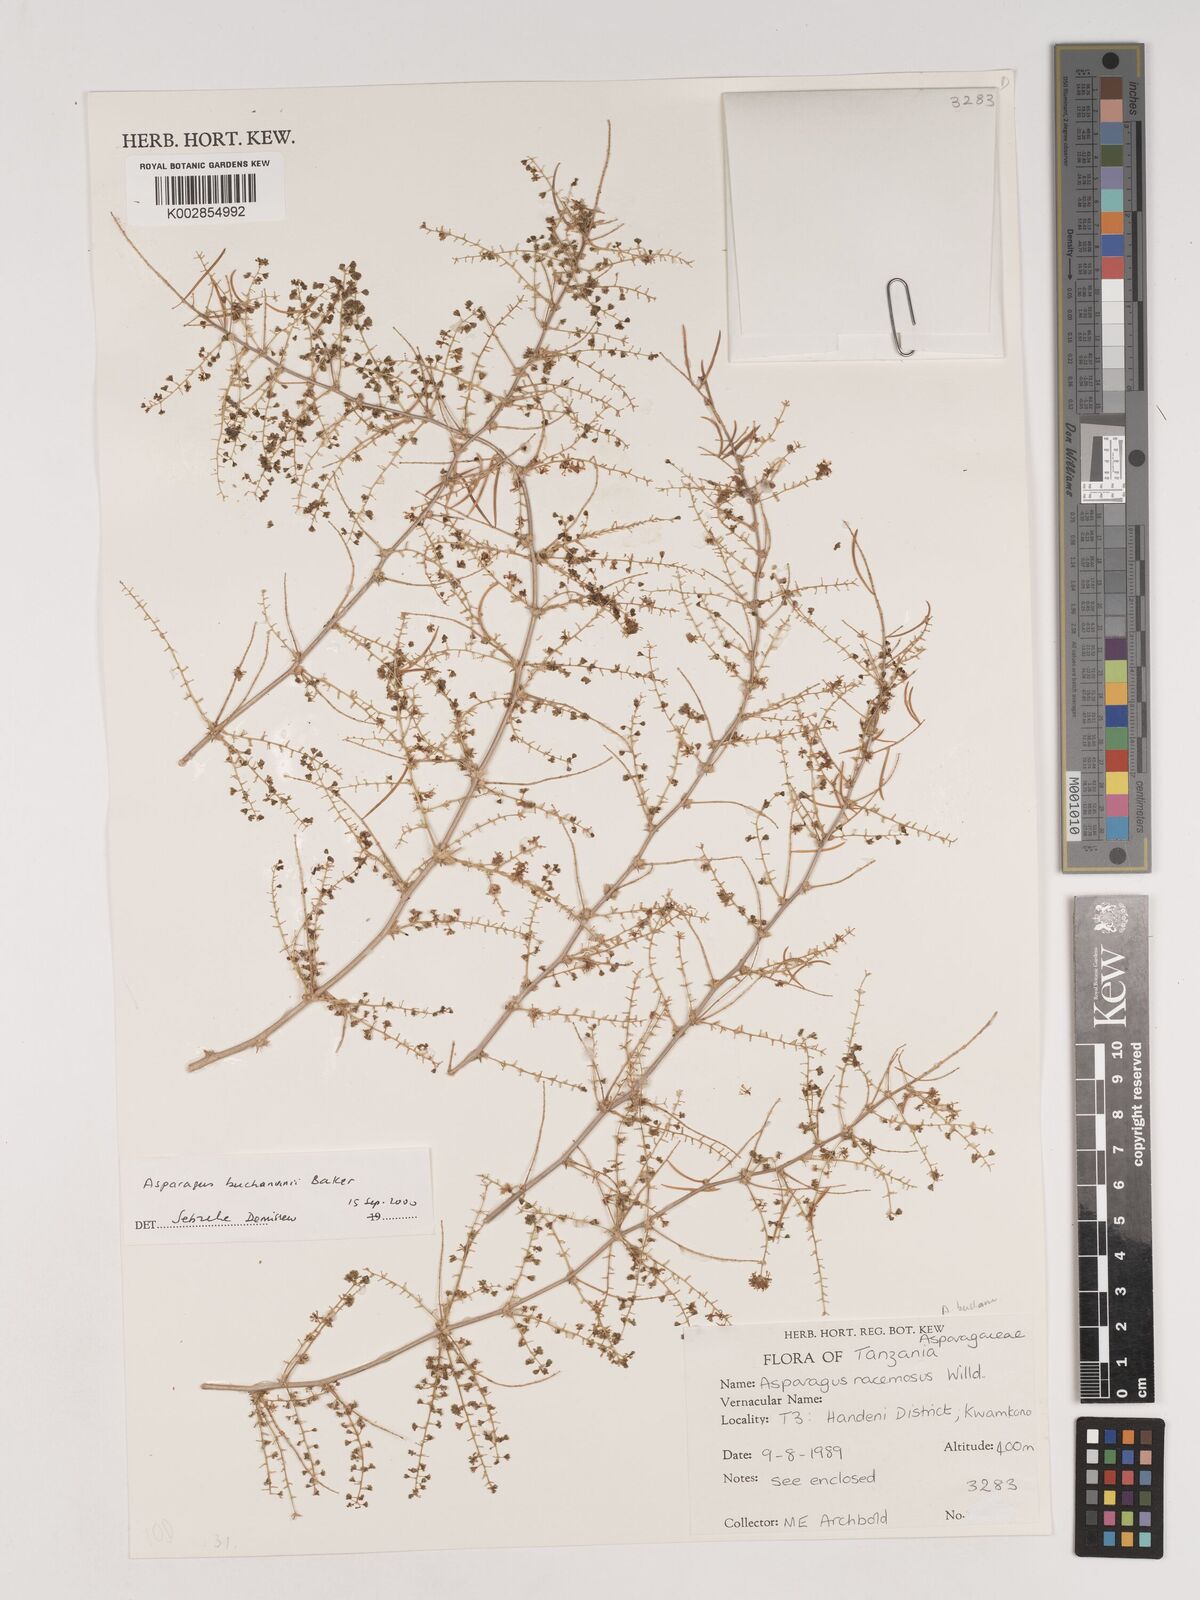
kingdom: Plantae
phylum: Tracheophyta
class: Liliopsida
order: Asparagales
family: Asparagaceae
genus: Asparagus
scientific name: Asparagus buchananii
